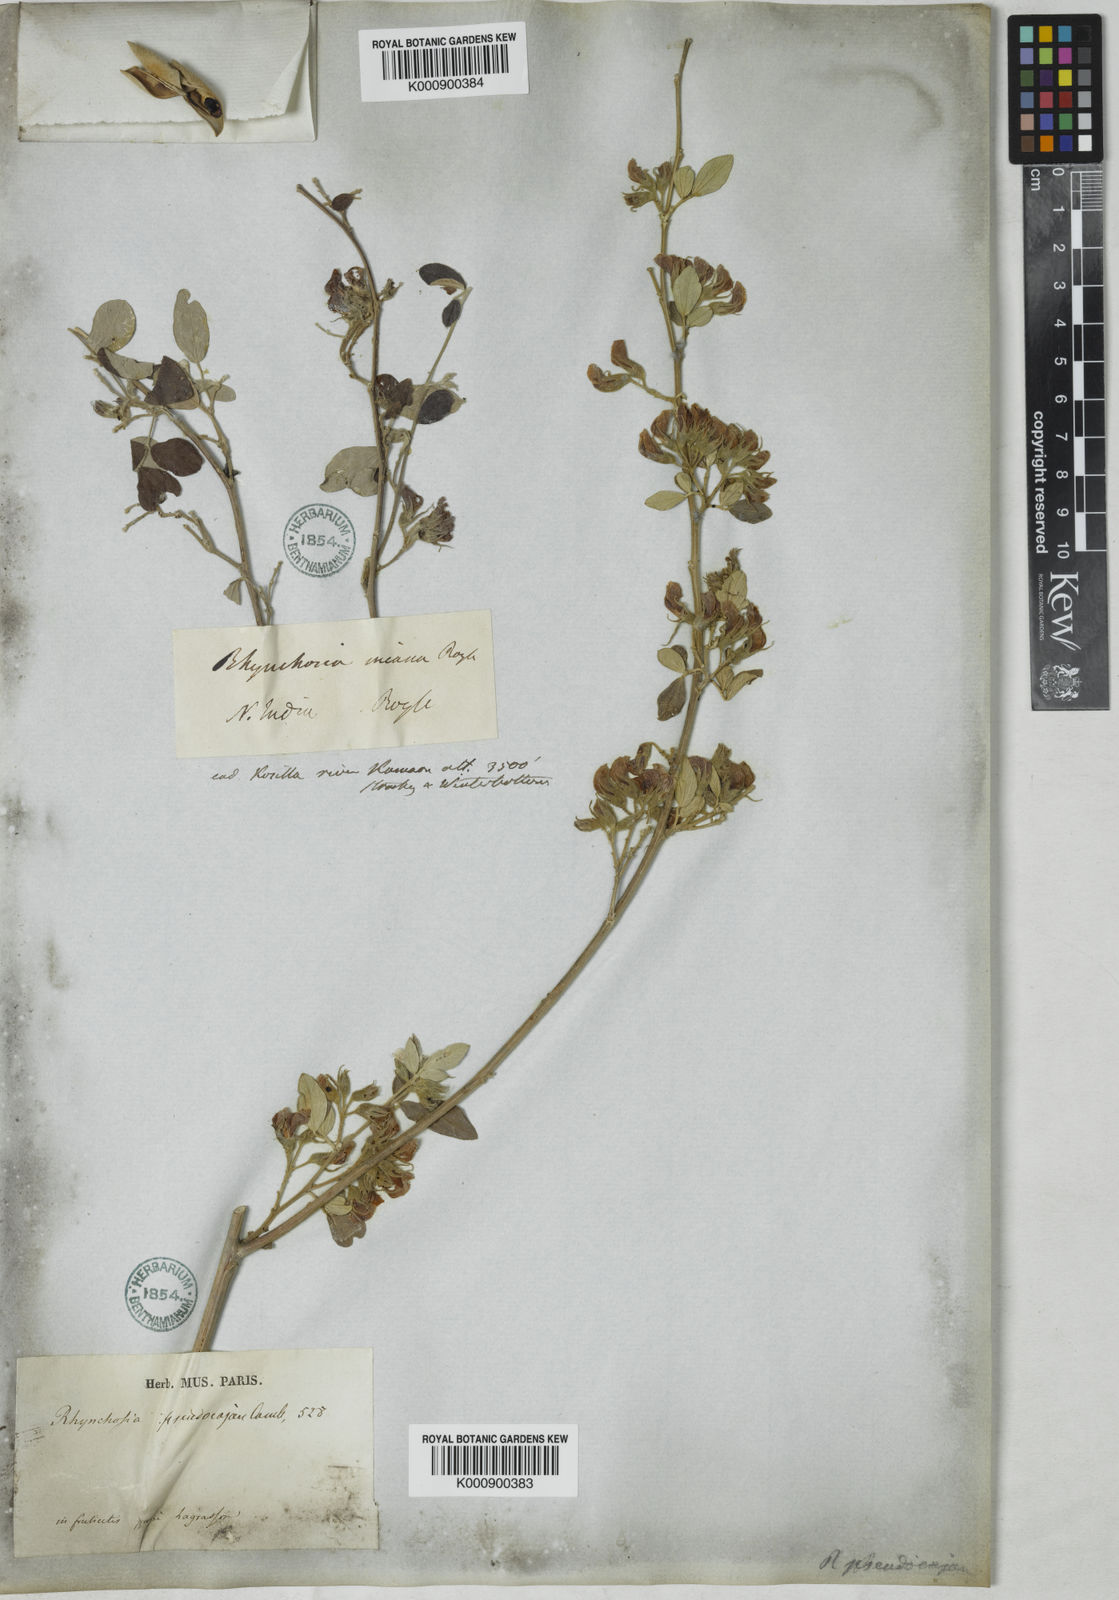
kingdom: Plantae
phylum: Tracheophyta
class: Magnoliopsida
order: Fabales
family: Fabaceae
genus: Rhynchosia
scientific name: Rhynchosia pseudocajan
